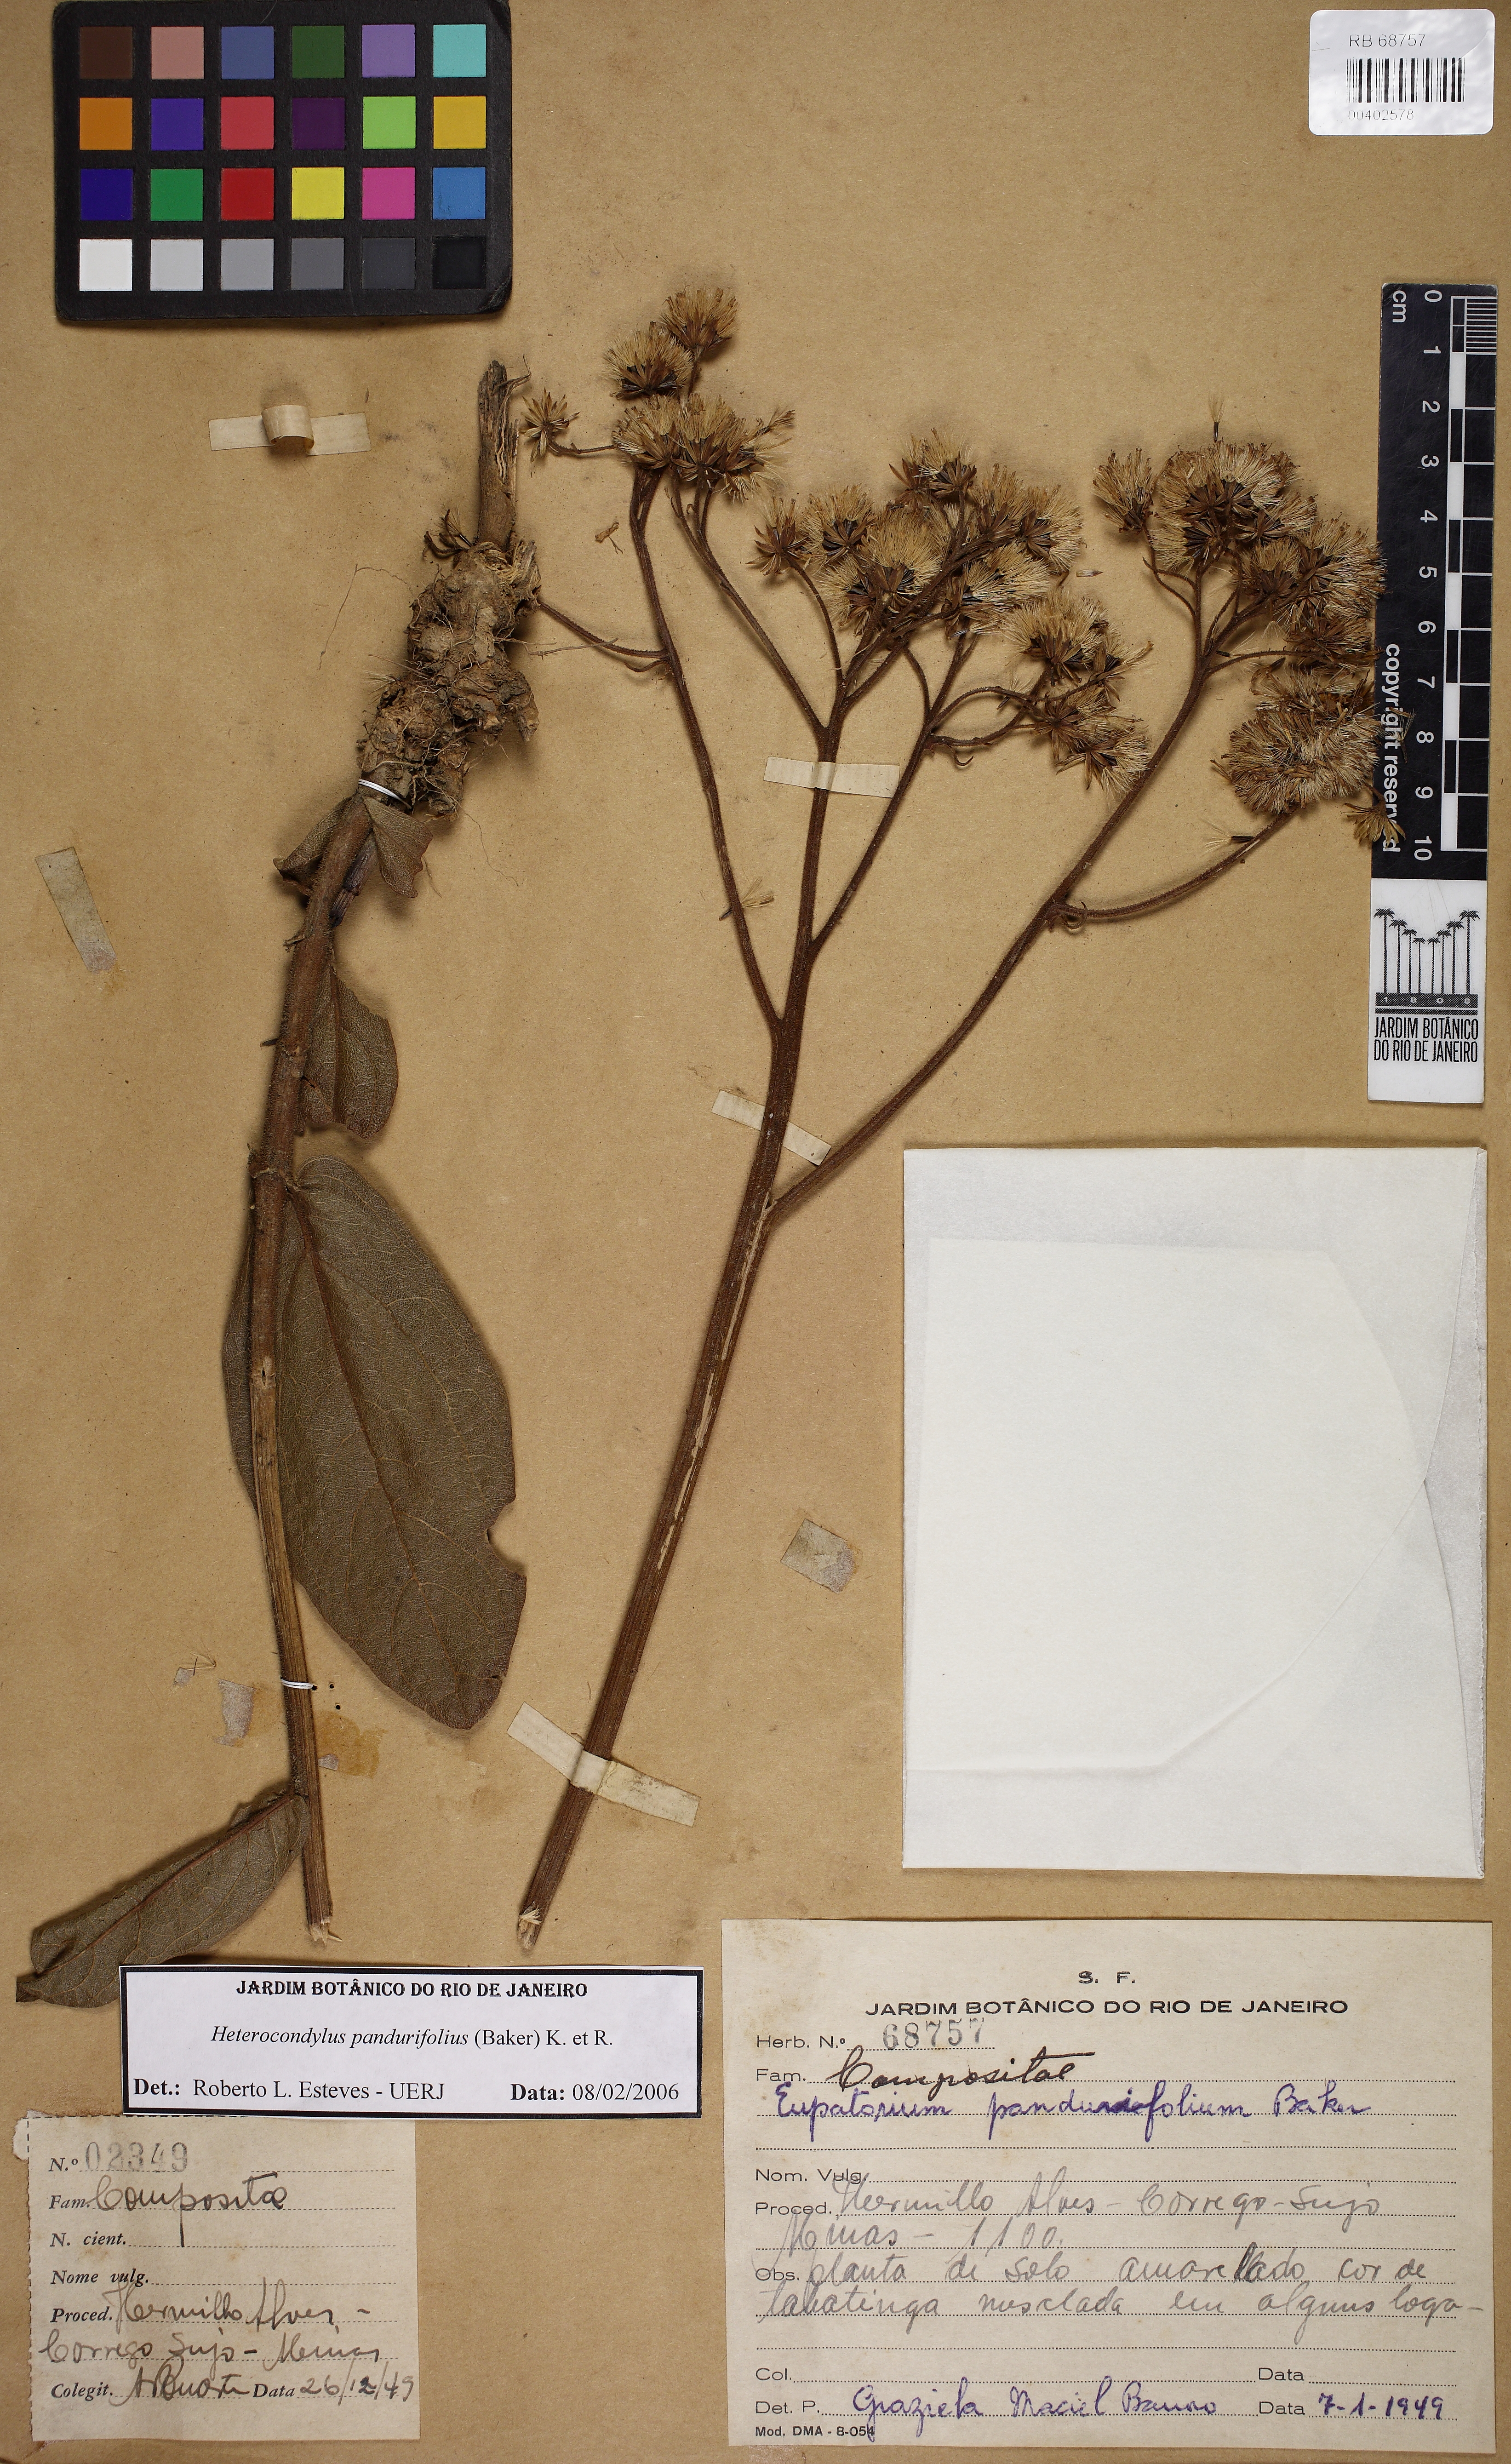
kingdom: Plantae
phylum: Tracheophyta
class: Magnoliopsida
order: Asterales
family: Asteraceae
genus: Heterocondylus
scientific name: Heterocondylus amphidictyus
